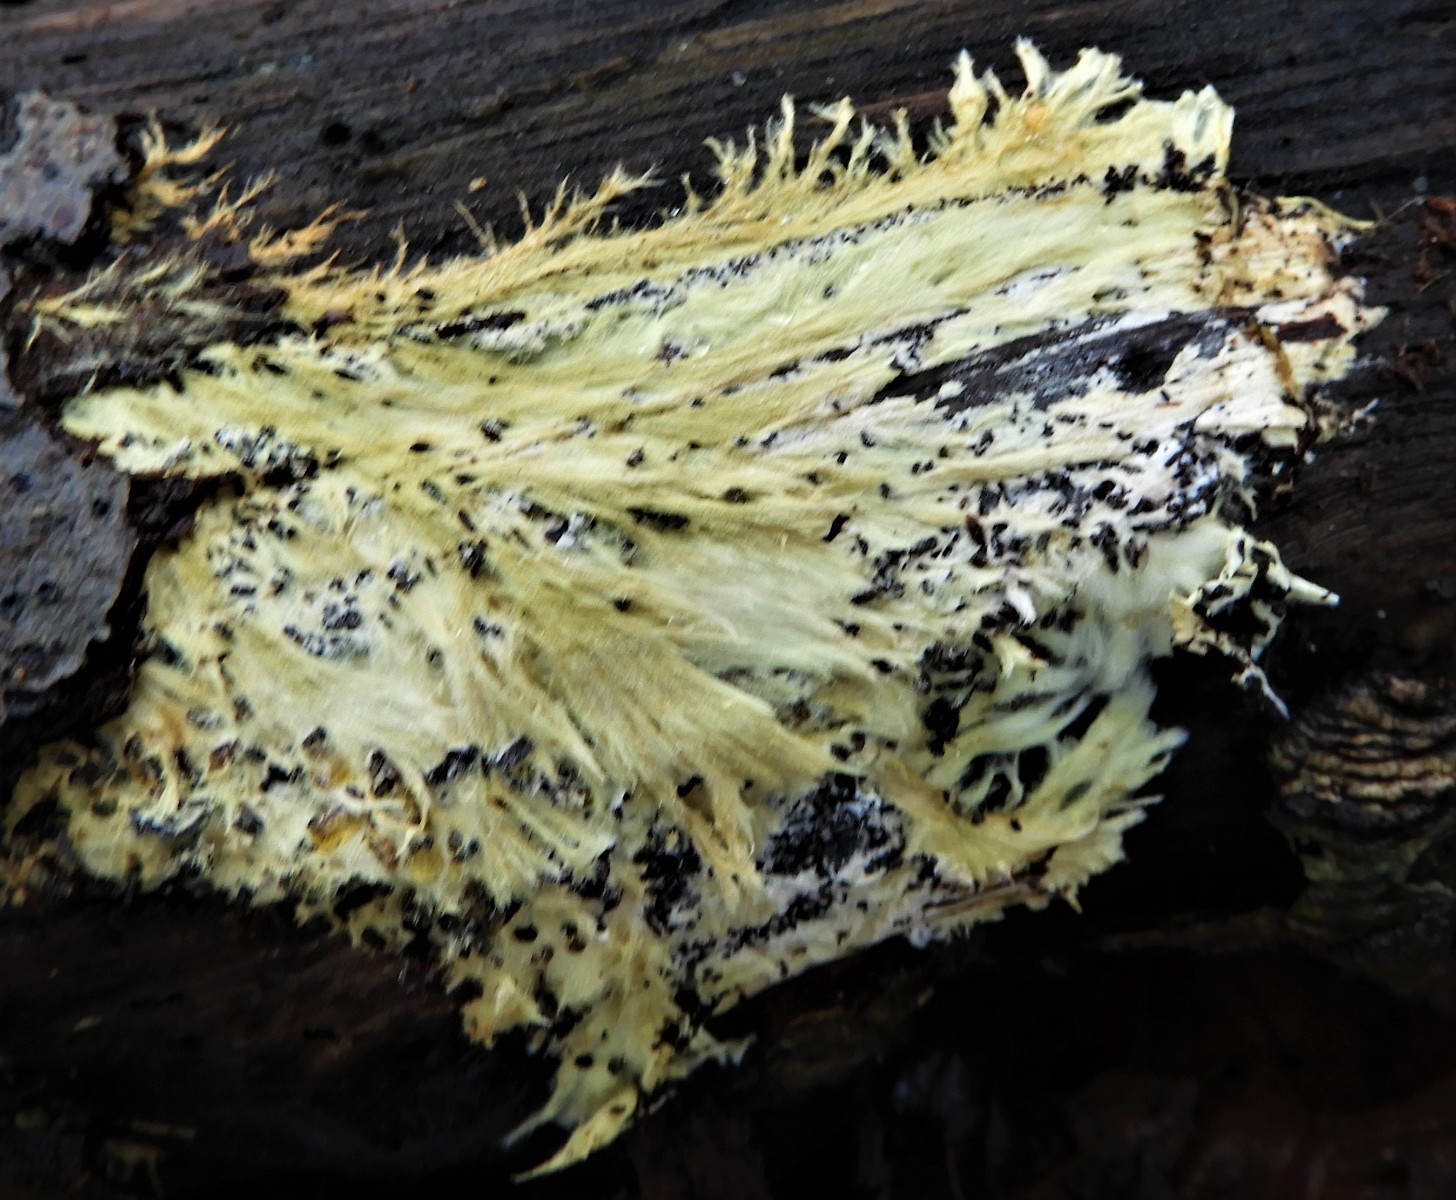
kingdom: Fungi
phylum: Basidiomycota
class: Agaricomycetes
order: Russulales
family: Xenasmataceae
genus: Xenasmatella
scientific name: Xenasmatella vaga
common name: svovl-strenghinde
